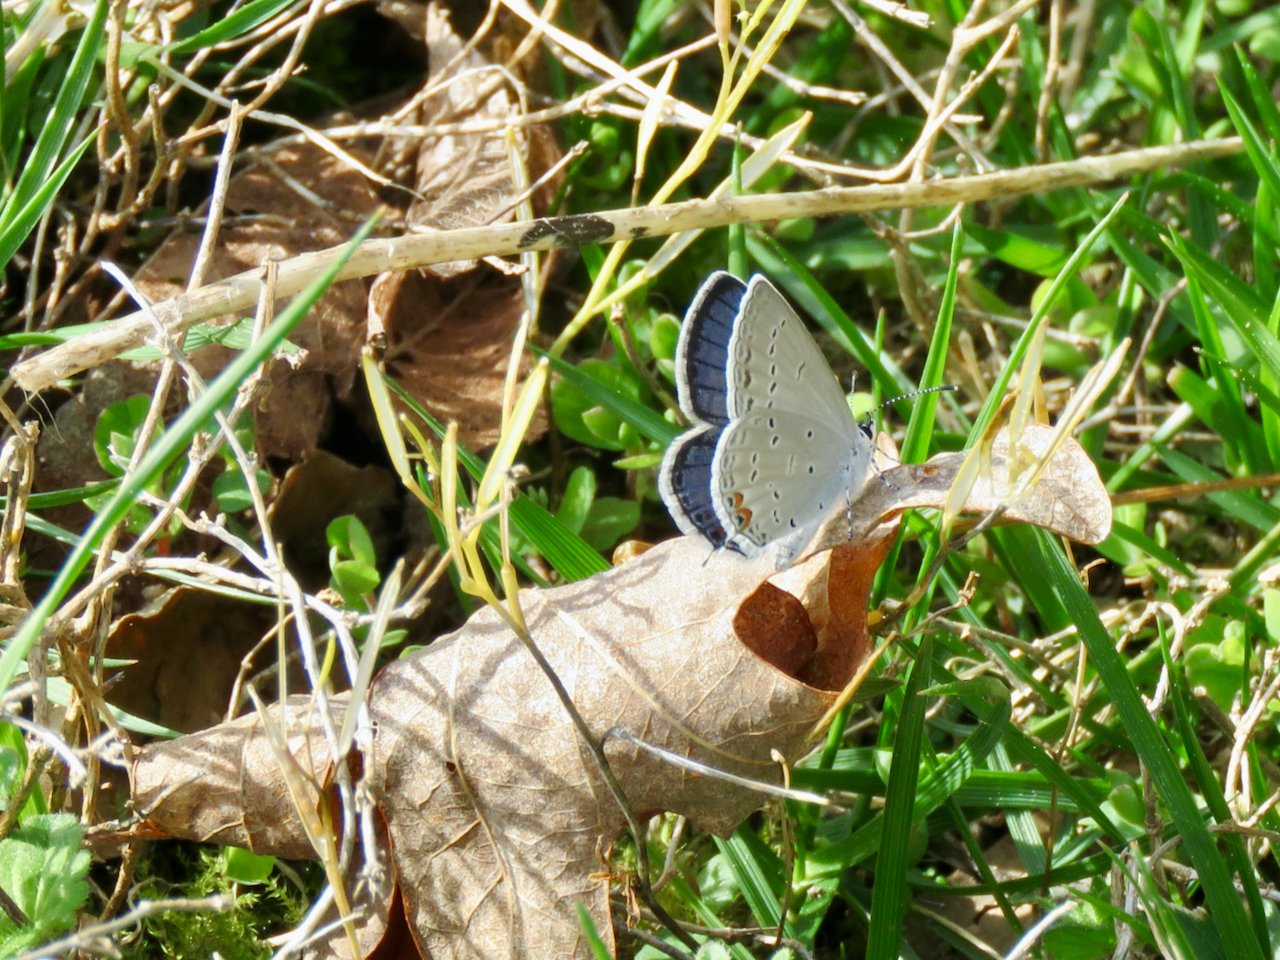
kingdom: Animalia
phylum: Arthropoda
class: Insecta
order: Lepidoptera
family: Lycaenidae
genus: Elkalyce
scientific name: Elkalyce comyntas
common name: Eastern Tailed-Blue
